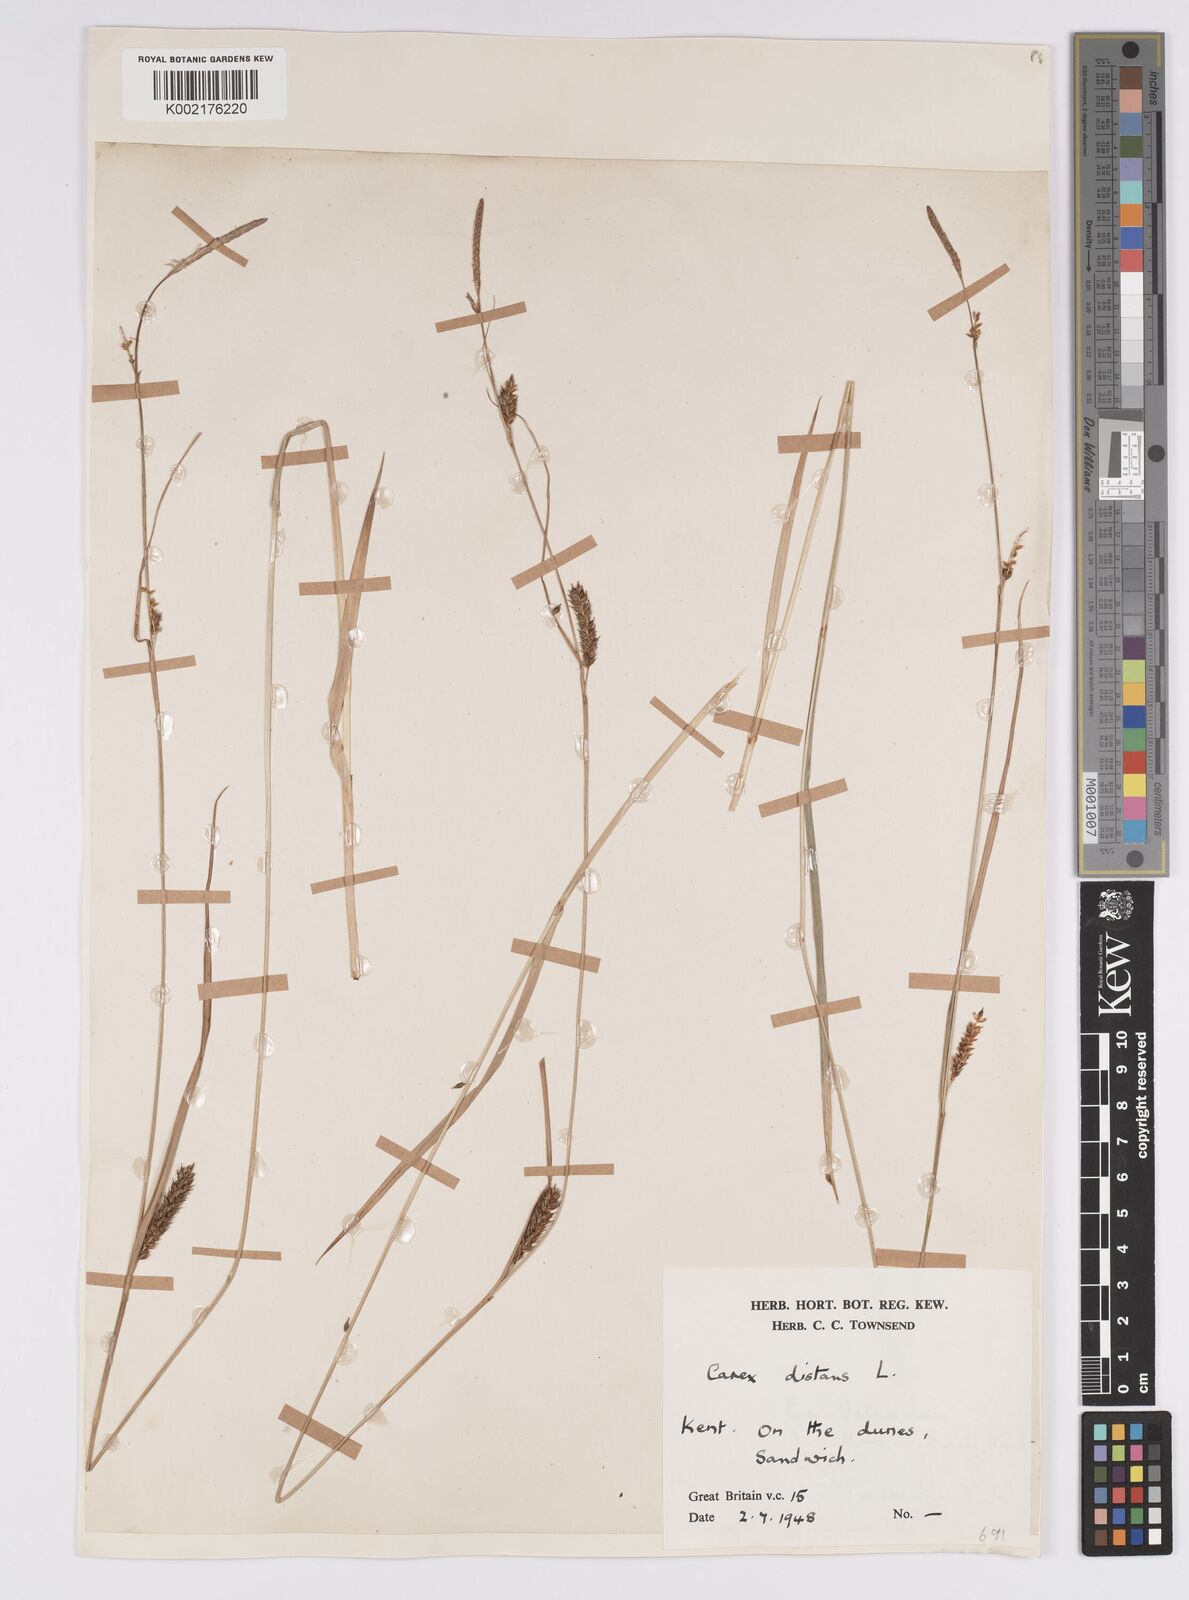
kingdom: Plantae
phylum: Tracheophyta
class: Liliopsida
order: Poales
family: Cyperaceae
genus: Carex
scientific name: Carex distans
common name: Distant sedge
